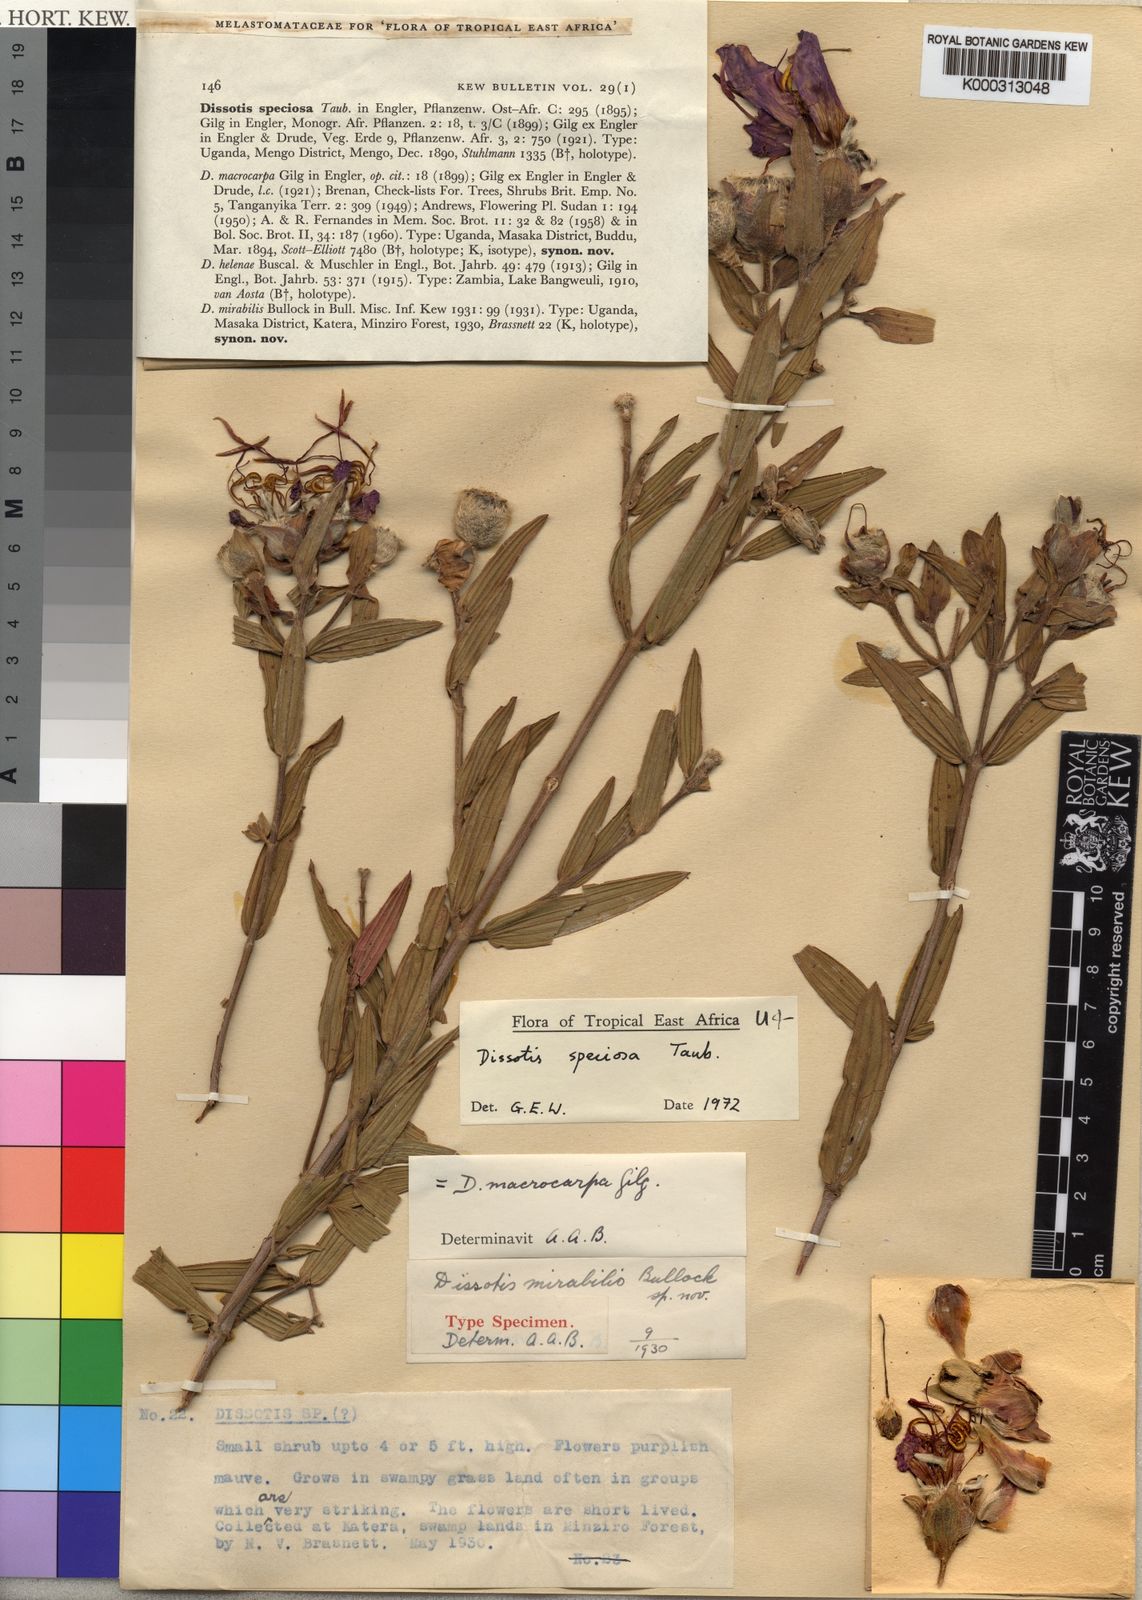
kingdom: Plantae
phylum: Tracheophyta
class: Magnoliopsida
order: Myrtales
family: Melastomataceae
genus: Feliciotis
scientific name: Feliciotis speciosa
